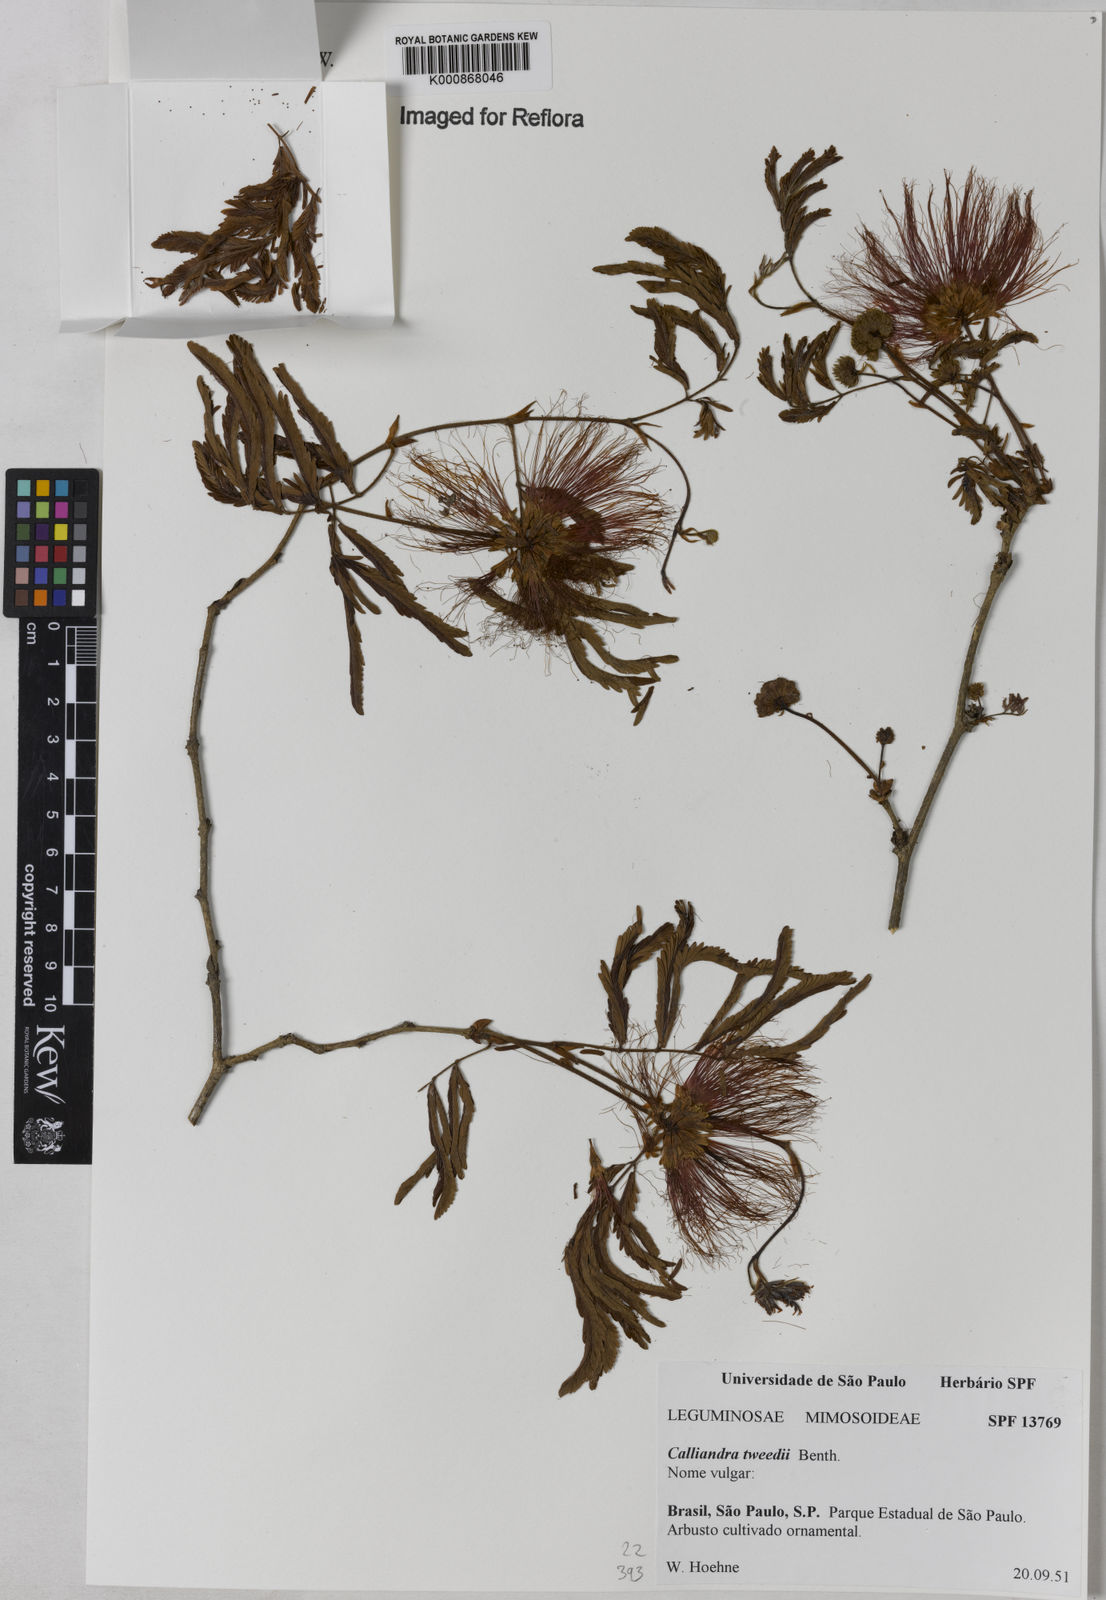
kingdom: Plantae
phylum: Tracheophyta
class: Magnoliopsida
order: Fabales
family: Fabaceae
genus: Calliandra
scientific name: Calliandra tweediei
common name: Mexican flamebush
